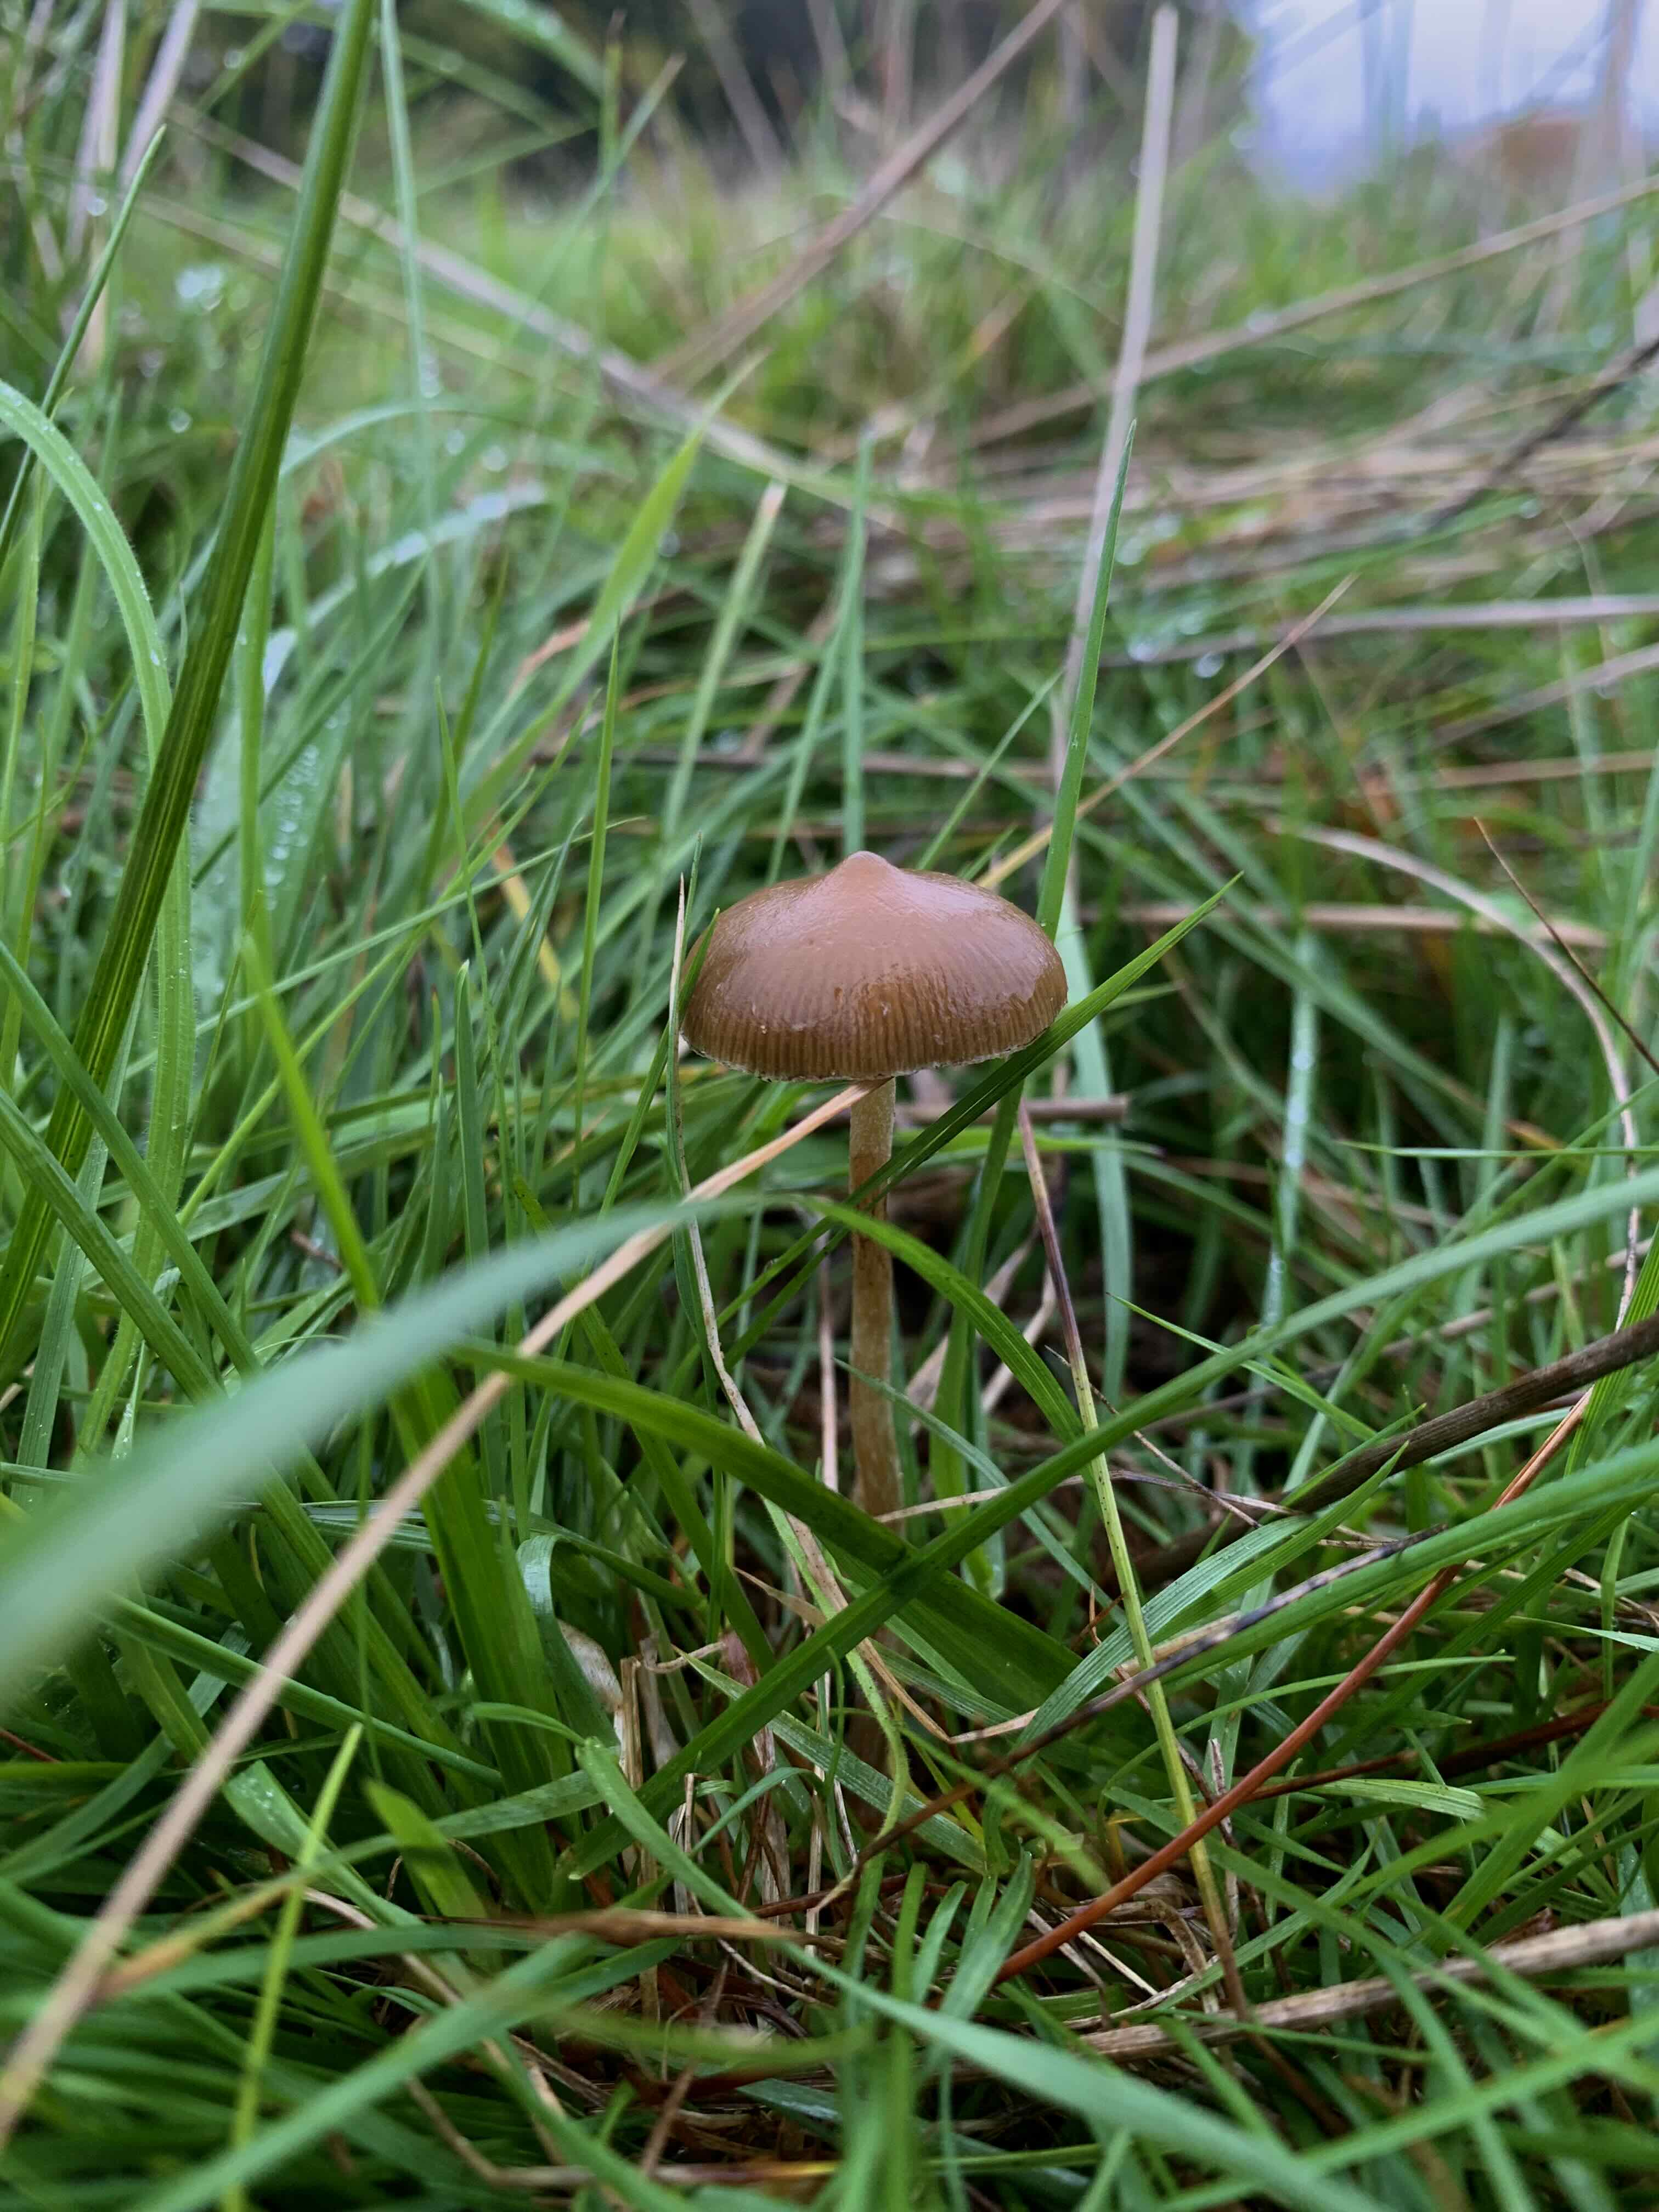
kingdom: Fungi
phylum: Basidiomycota
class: Agaricomycetes
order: Agaricales
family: Hymenogastraceae
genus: Psilocybe
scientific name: Psilocybe fimetaria
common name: prægtig nøgenhat
